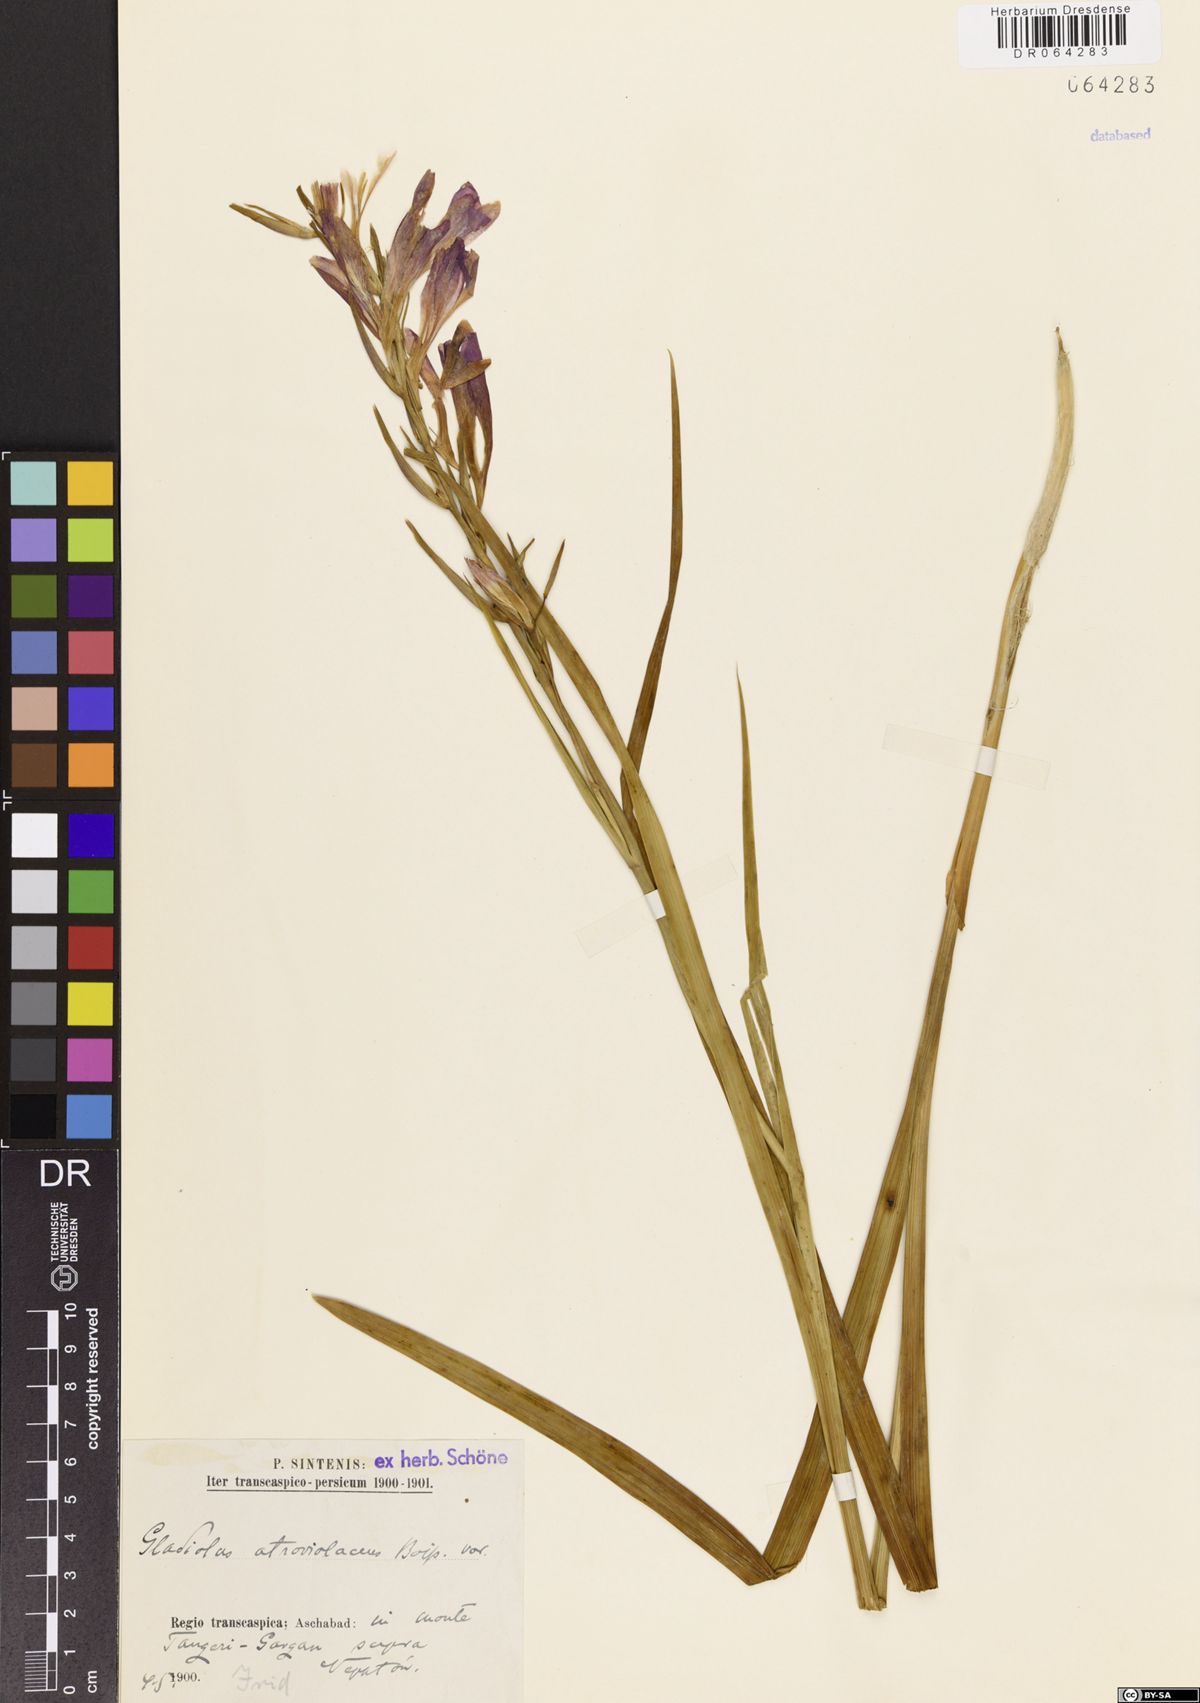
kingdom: Plantae
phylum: Tracheophyta
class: Liliopsida
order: Asparagales
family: Iridaceae
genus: Gladiolus
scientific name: Gladiolus atroviolaceus
